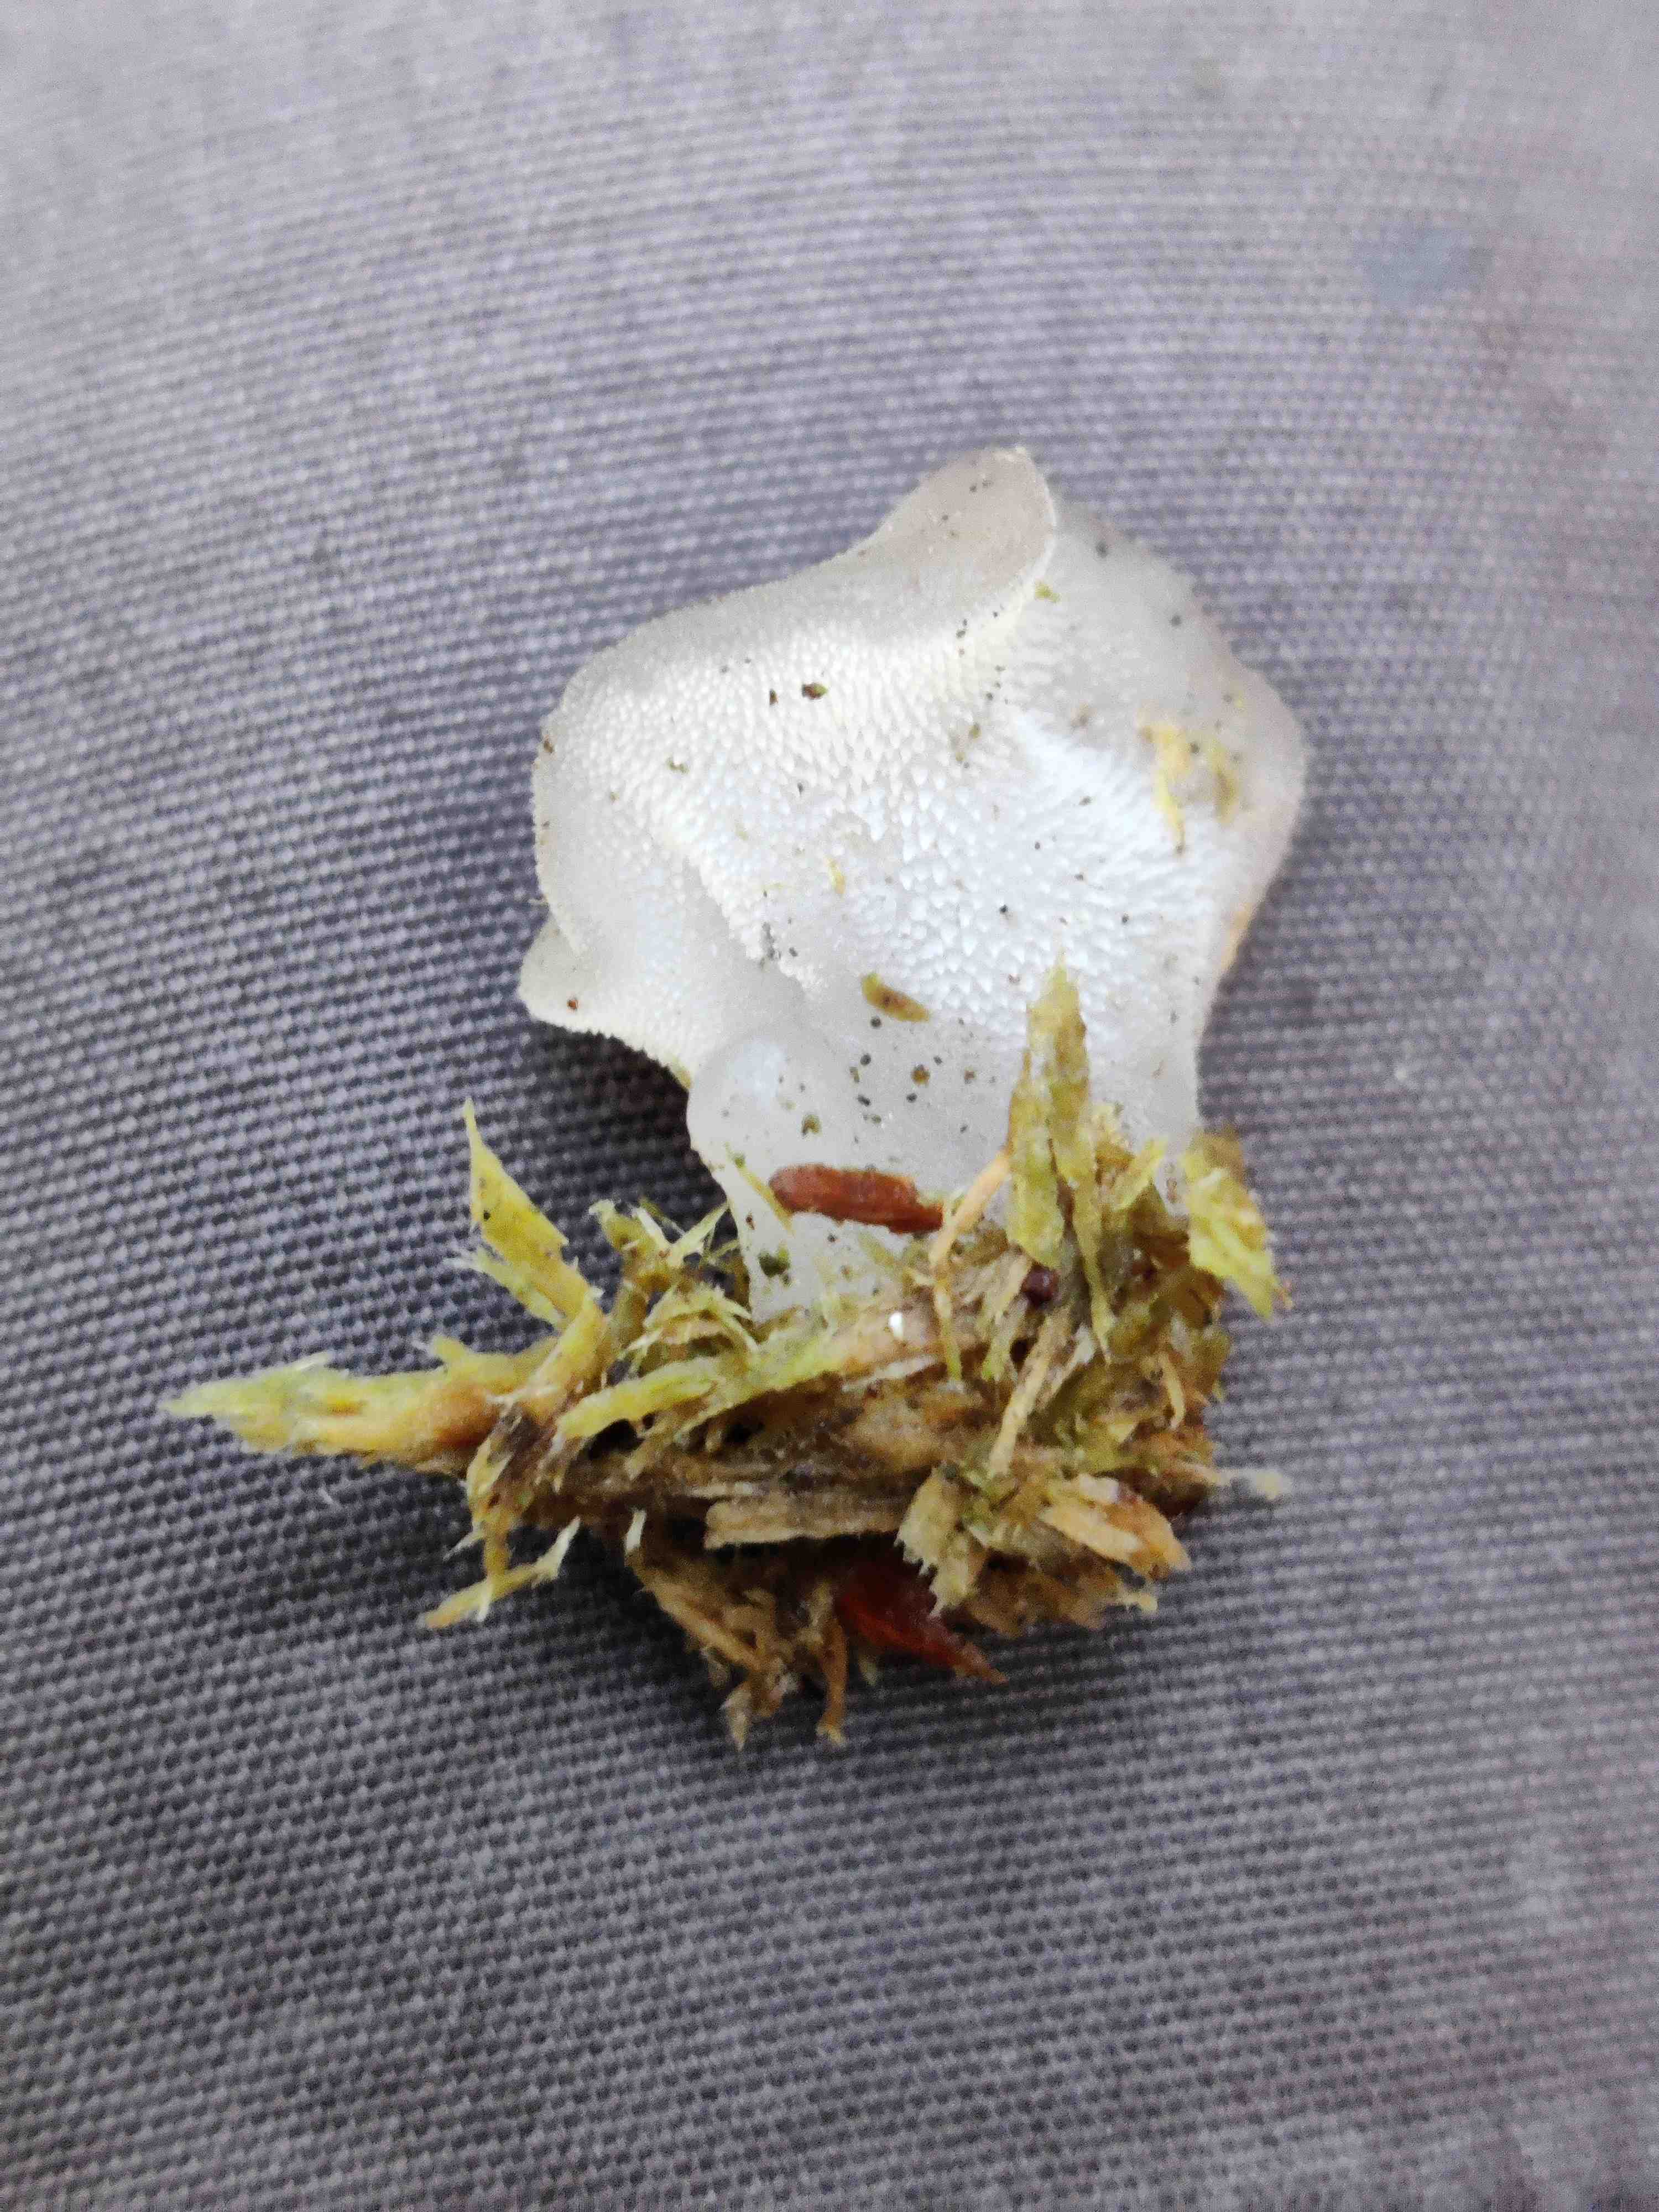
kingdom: Fungi
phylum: Basidiomycota
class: Agaricomycetes
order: Auriculariales
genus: Pseudohydnum
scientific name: Pseudohydnum gelatinosum
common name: bævretand
